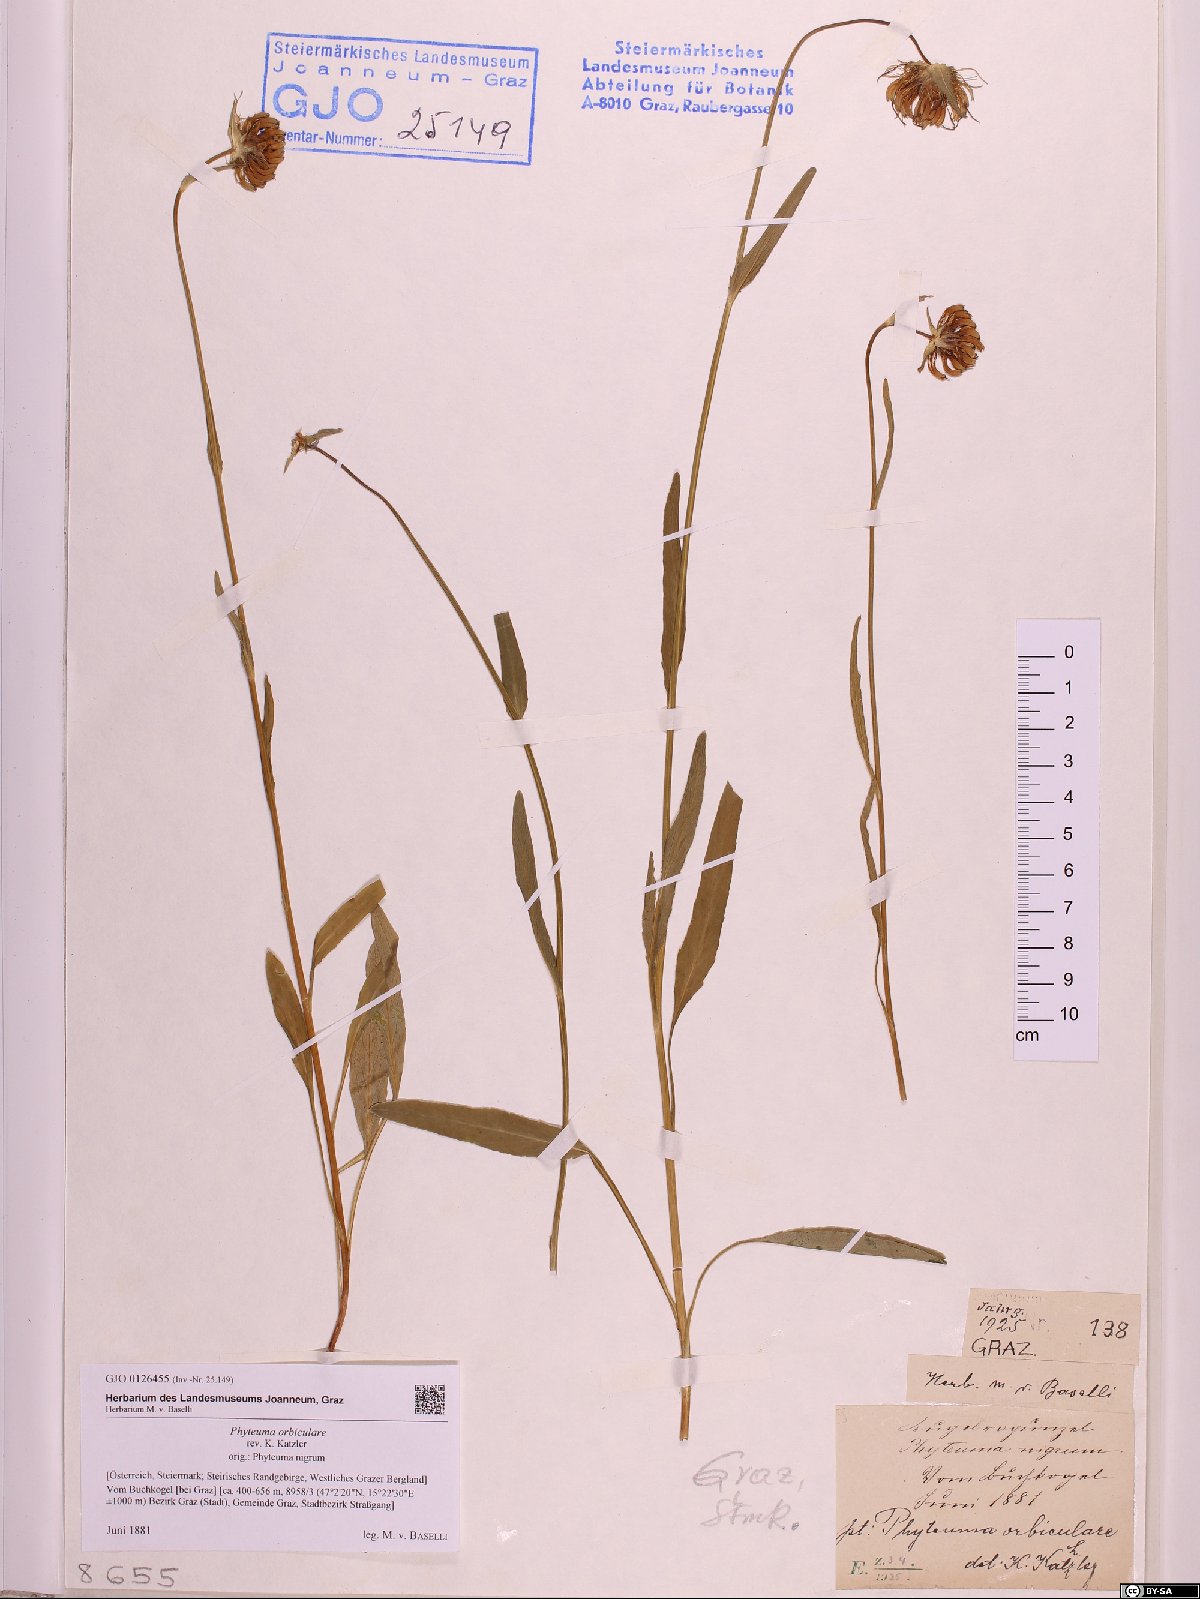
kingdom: Plantae
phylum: Tracheophyta
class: Magnoliopsida
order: Asterales
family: Campanulaceae
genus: Phyteuma
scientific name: Phyteuma orbiculare
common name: Round-headed rampion
